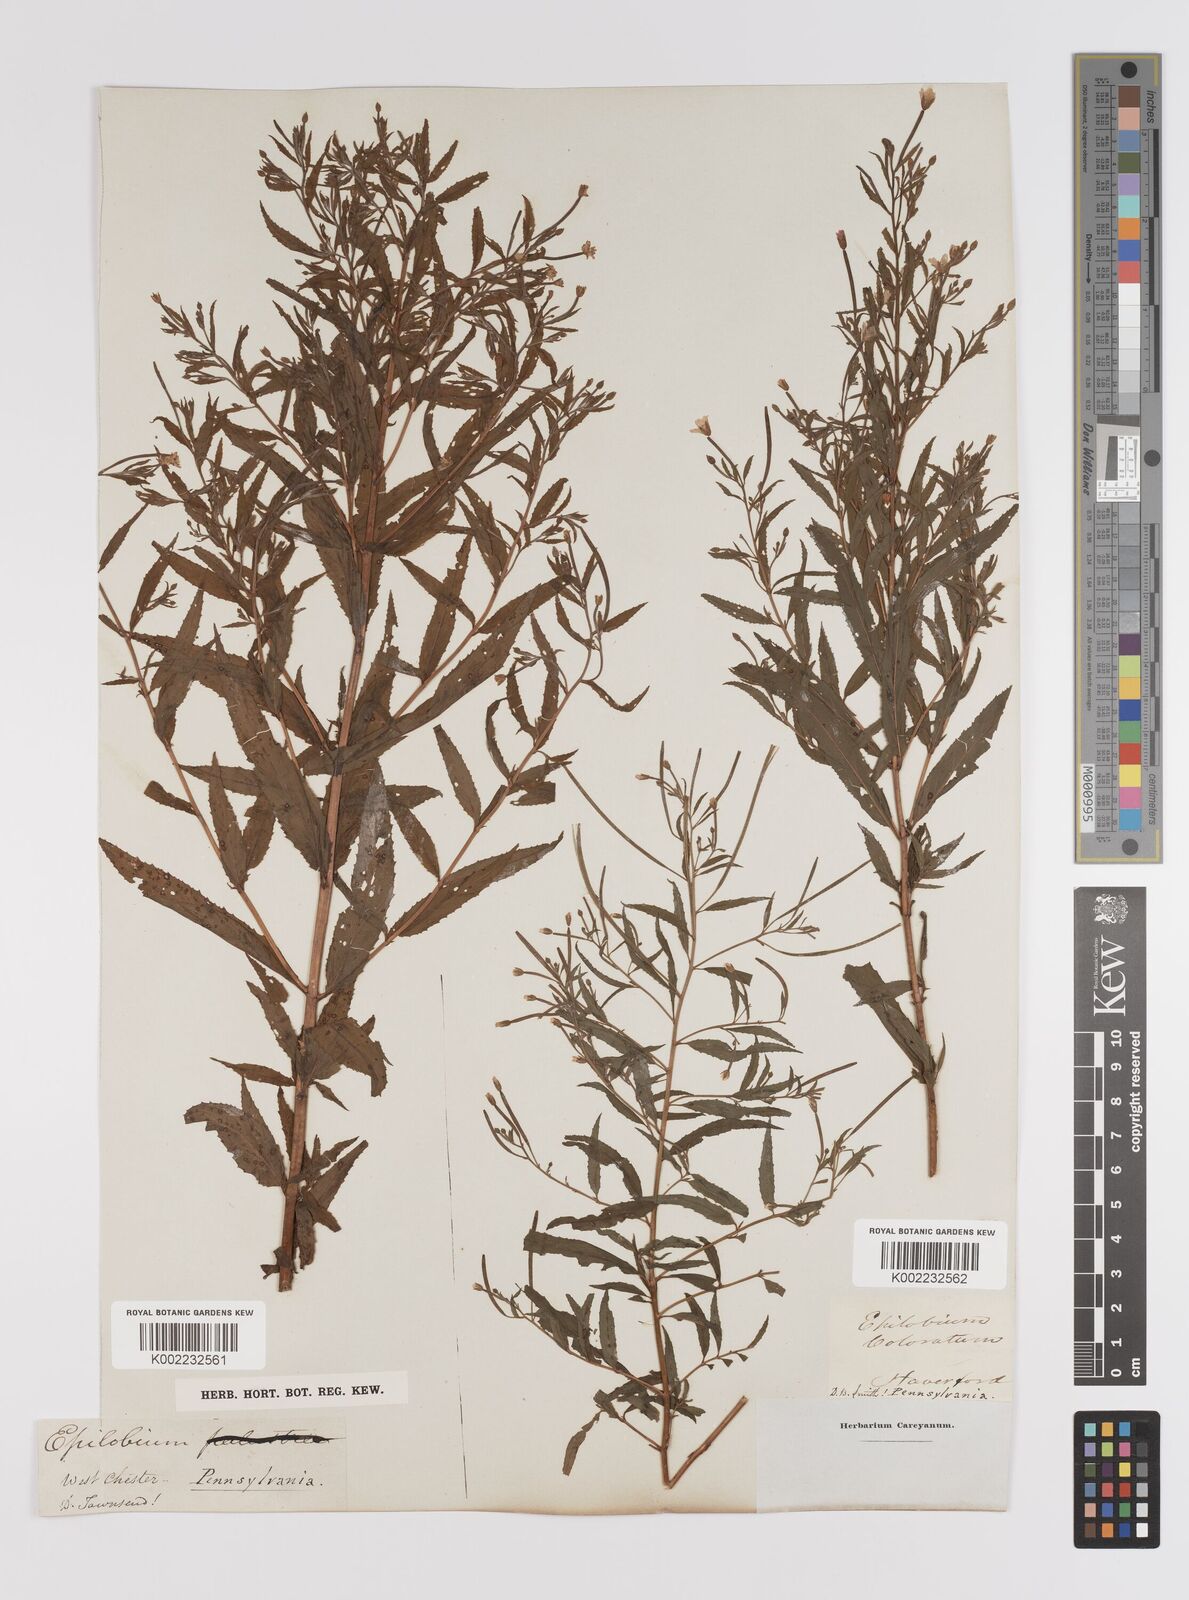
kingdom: Plantae
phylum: Tracheophyta
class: Magnoliopsida
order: Myrtales
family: Onagraceae
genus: Epilobium
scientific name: Epilobium coloratum
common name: Bronze willowherb
